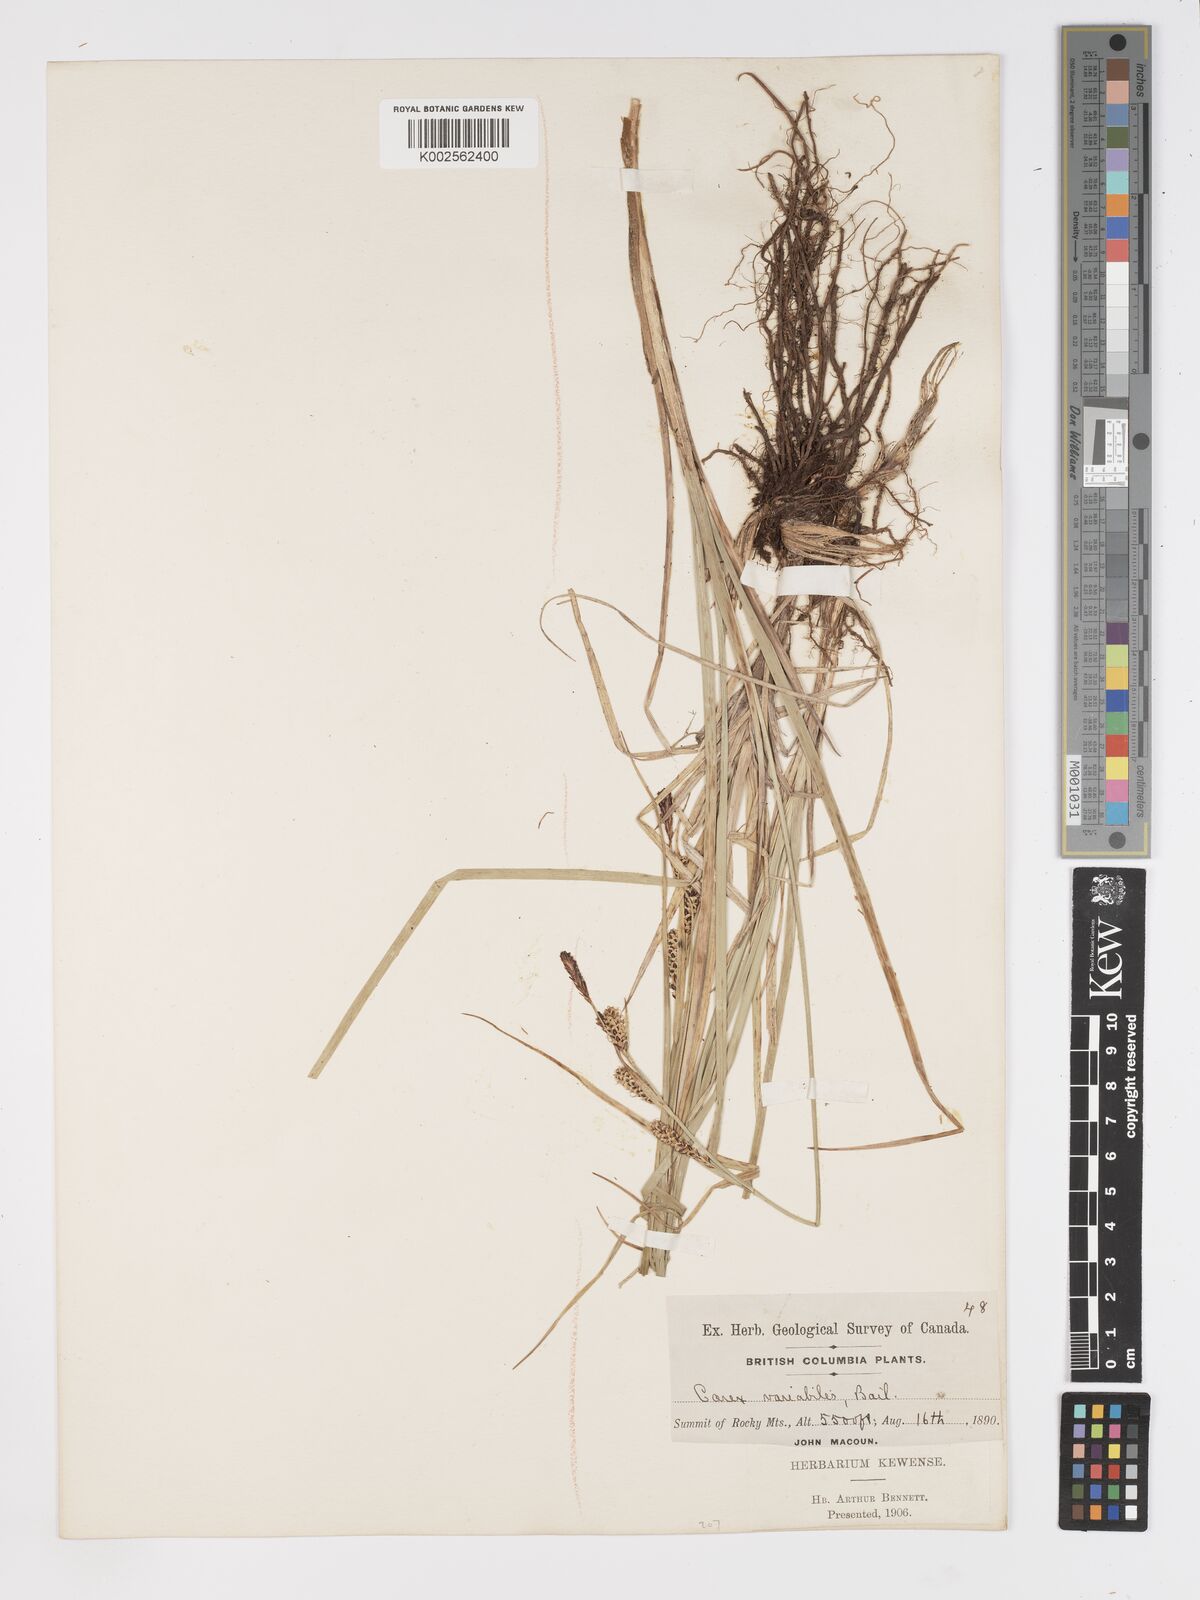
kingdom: Plantae
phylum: Tracheophyta
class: Liliopsida
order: Poales
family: Cyperaceae
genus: Carex
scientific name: Carex aquatilis
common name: Water sedge
